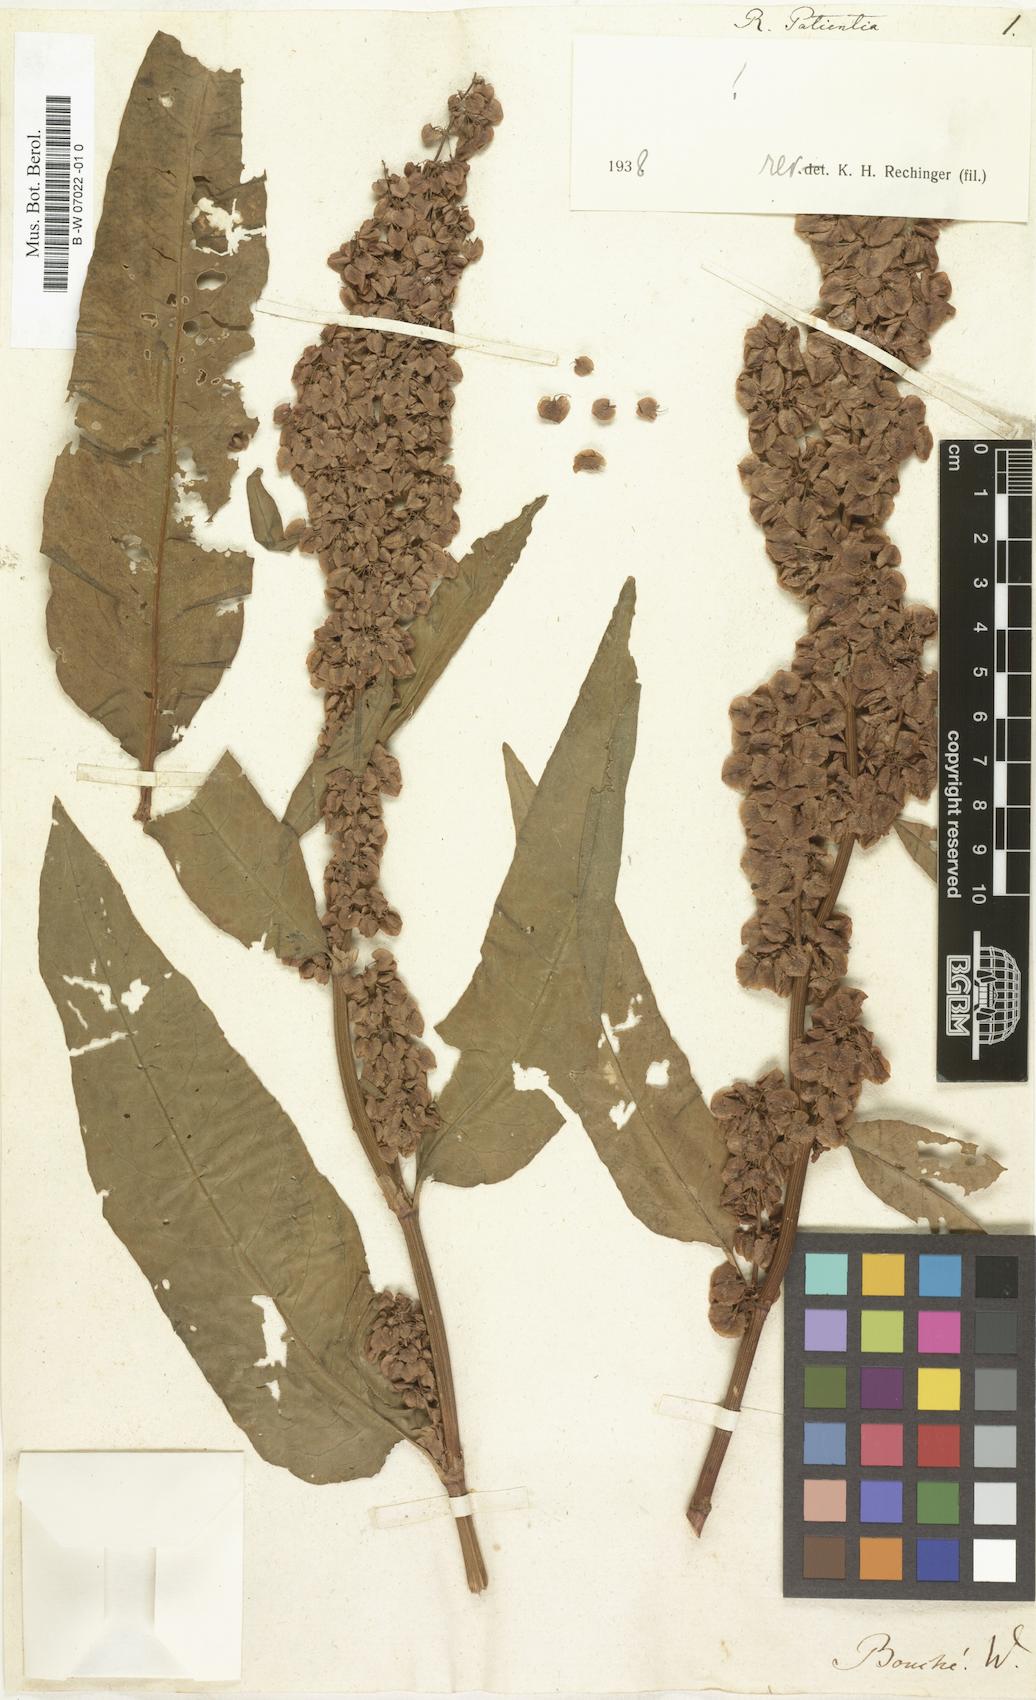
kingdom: Plantae
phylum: Tracheophyta
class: Magnoliopsida
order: Caryophyllales
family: Polygonaceae
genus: Rumex
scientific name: Rumex patientia
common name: Patience dock
